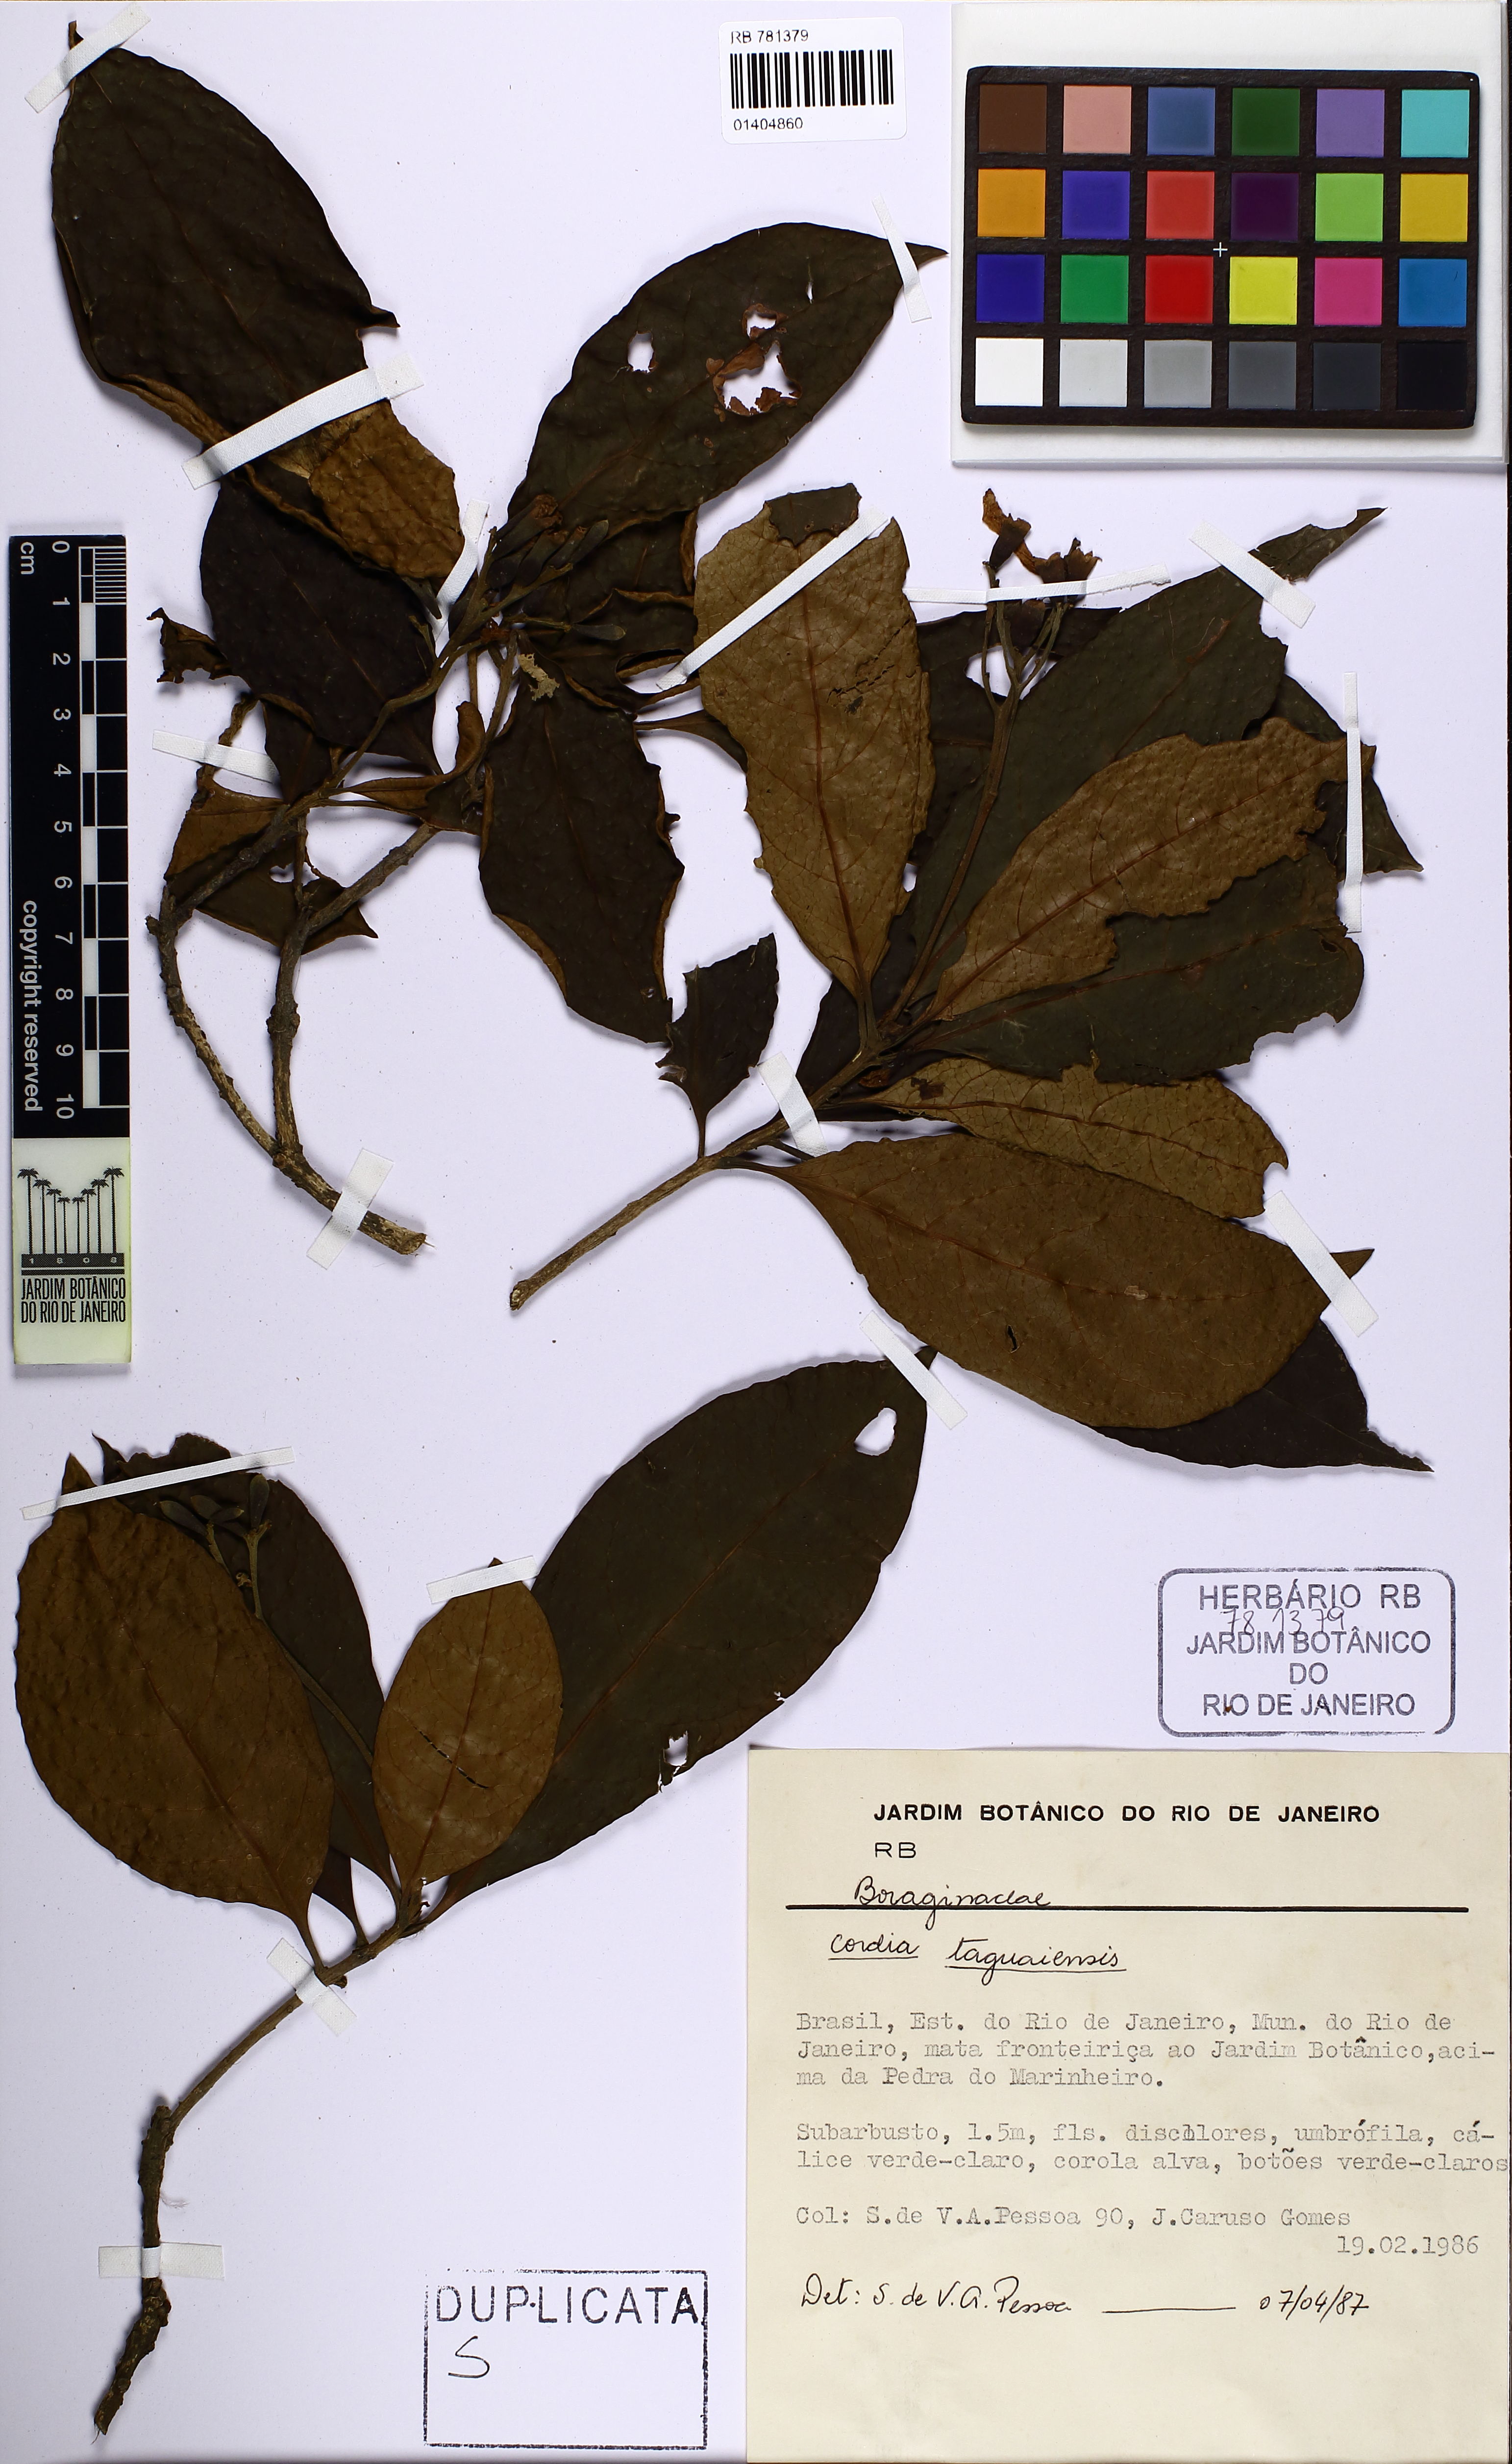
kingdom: Plantae
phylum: Tracheophyta
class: Magnoliopsida
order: Boraginales
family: Cordiaceae
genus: Cordia
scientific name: Cordia taguahuyensis
